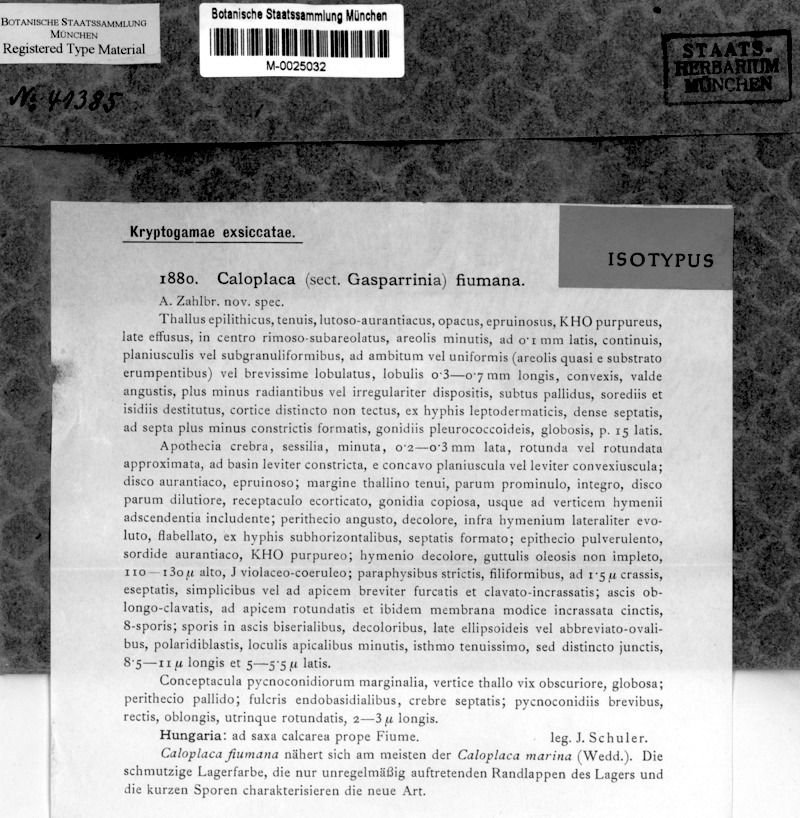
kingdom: Fungi
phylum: Ascomycota
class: Lecanoromycetes
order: Teloschistales
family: Teloschistaceae
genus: Flavoplaca
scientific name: Flavoplaca polycarpa
